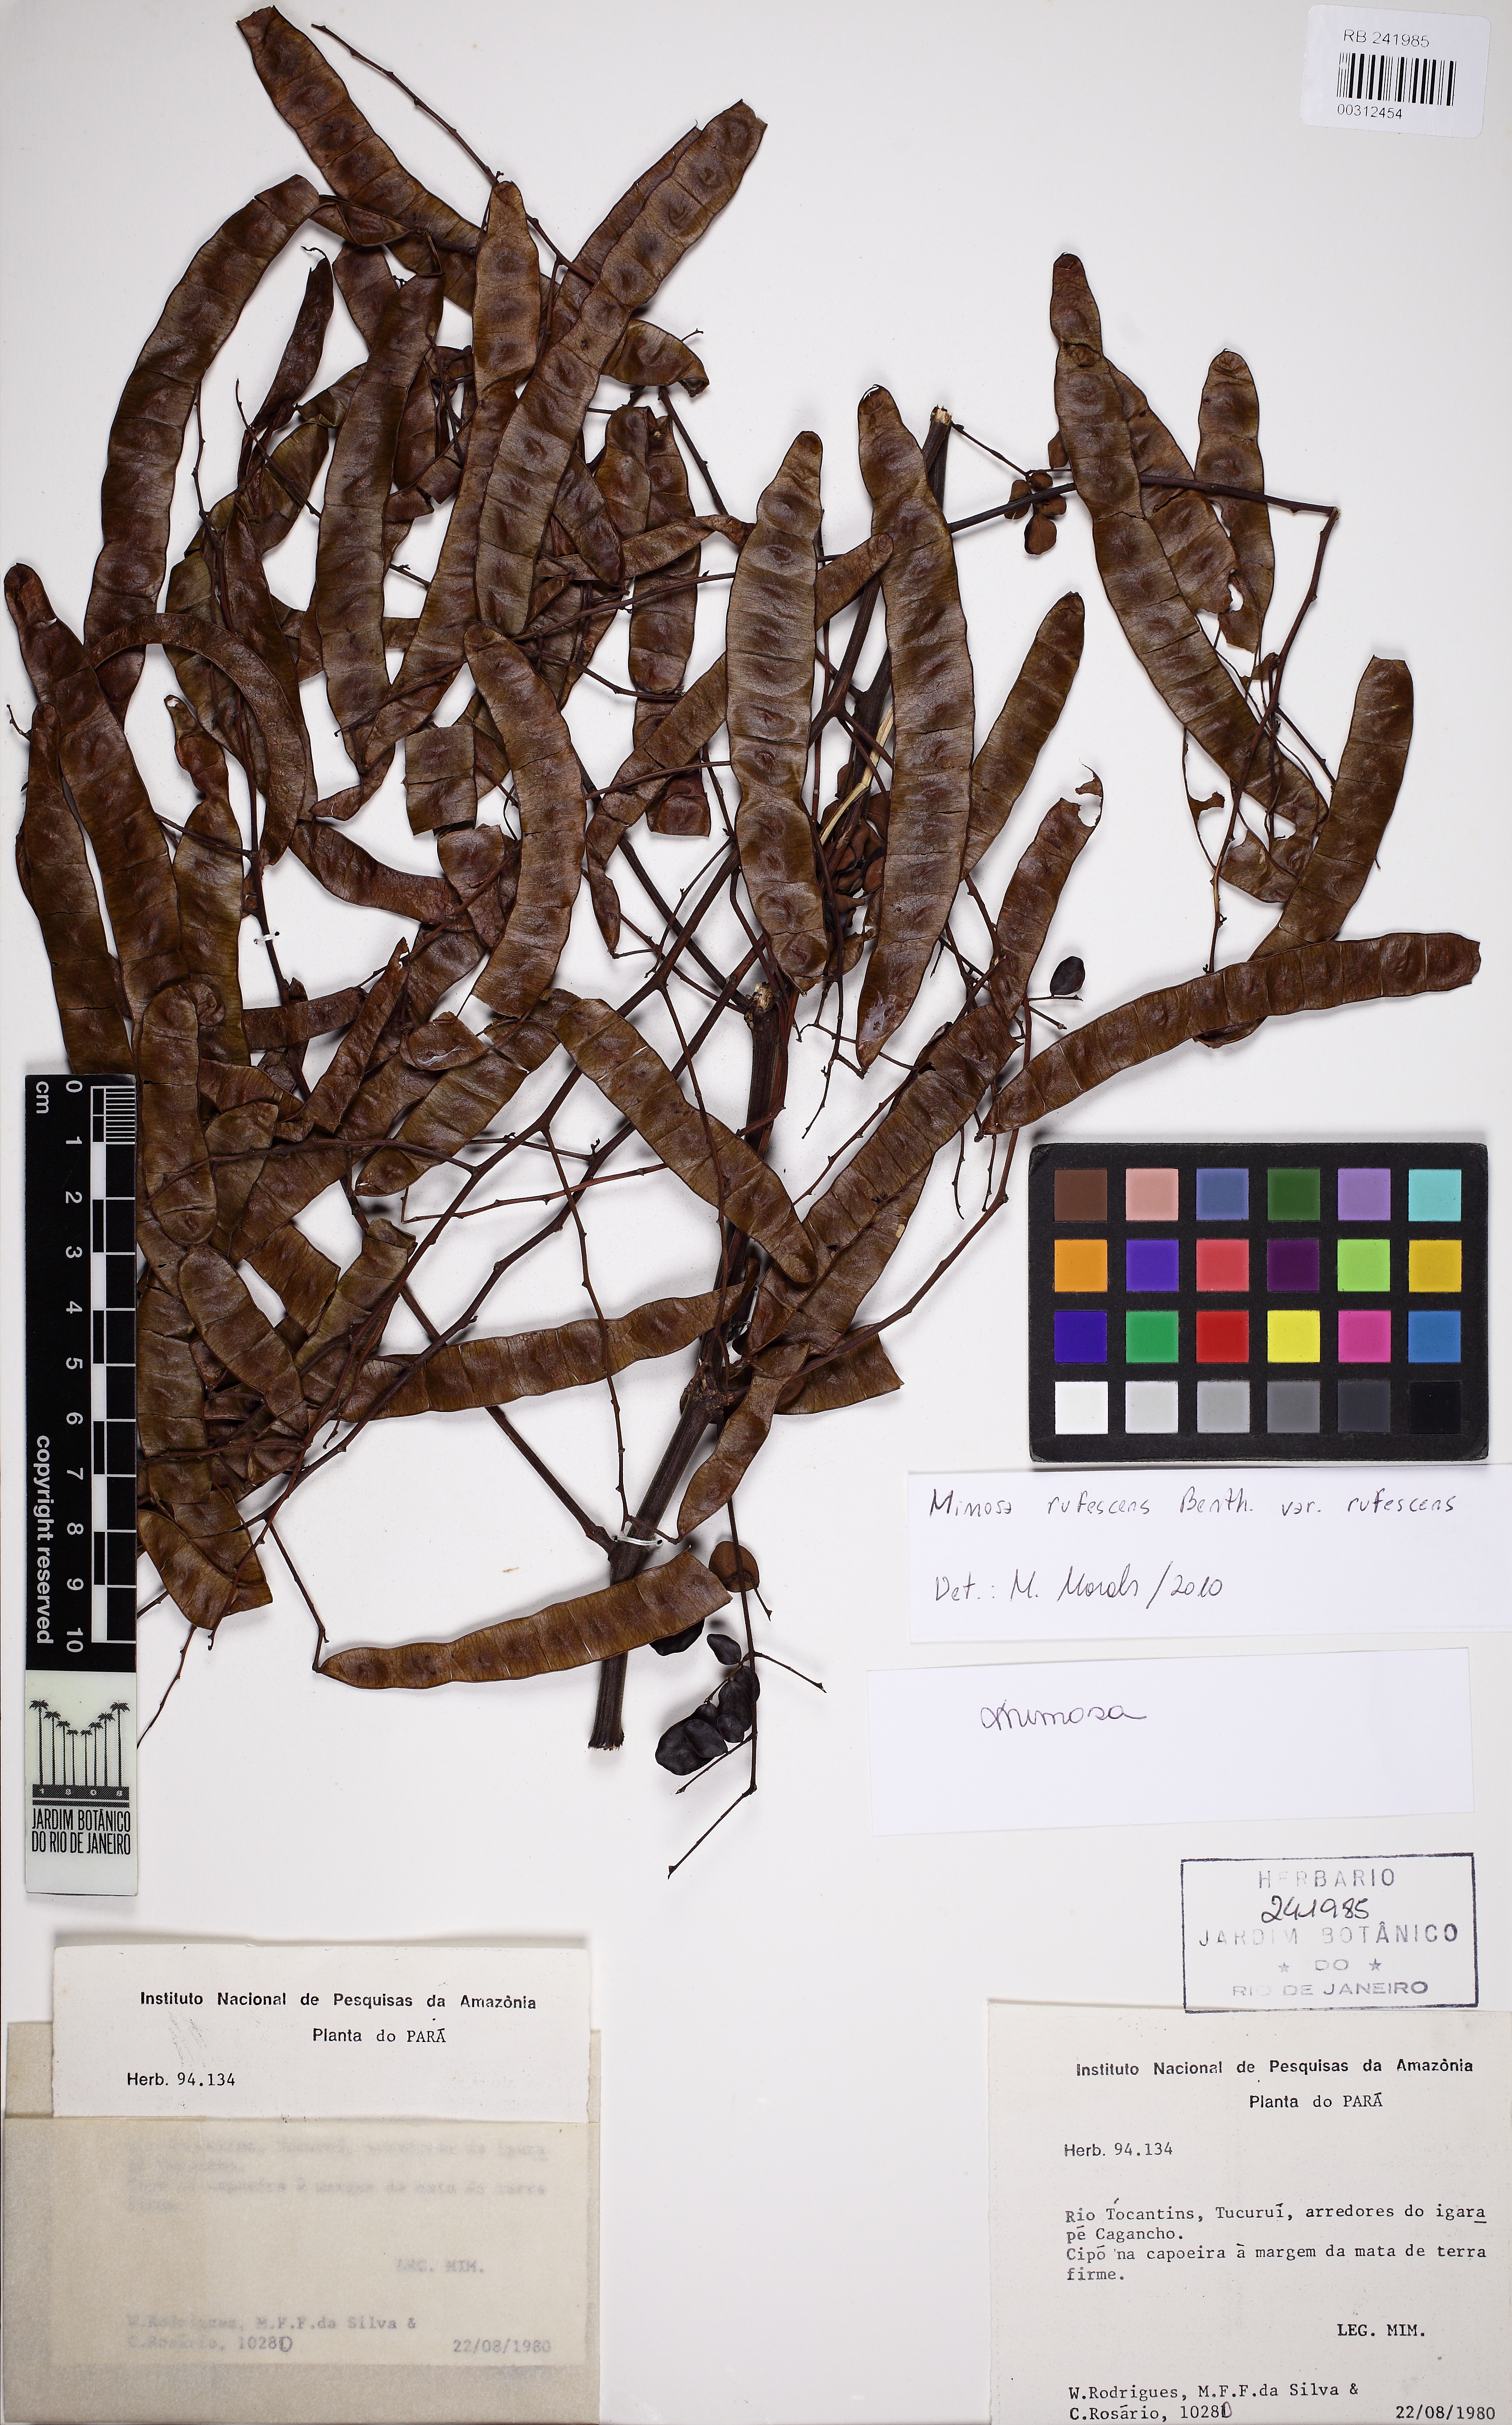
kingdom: Plantae
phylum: Tracheophyta
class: Magnoliopsida
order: Fabales
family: Fabaceae
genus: Mimosa
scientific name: Mimosa rufescens
